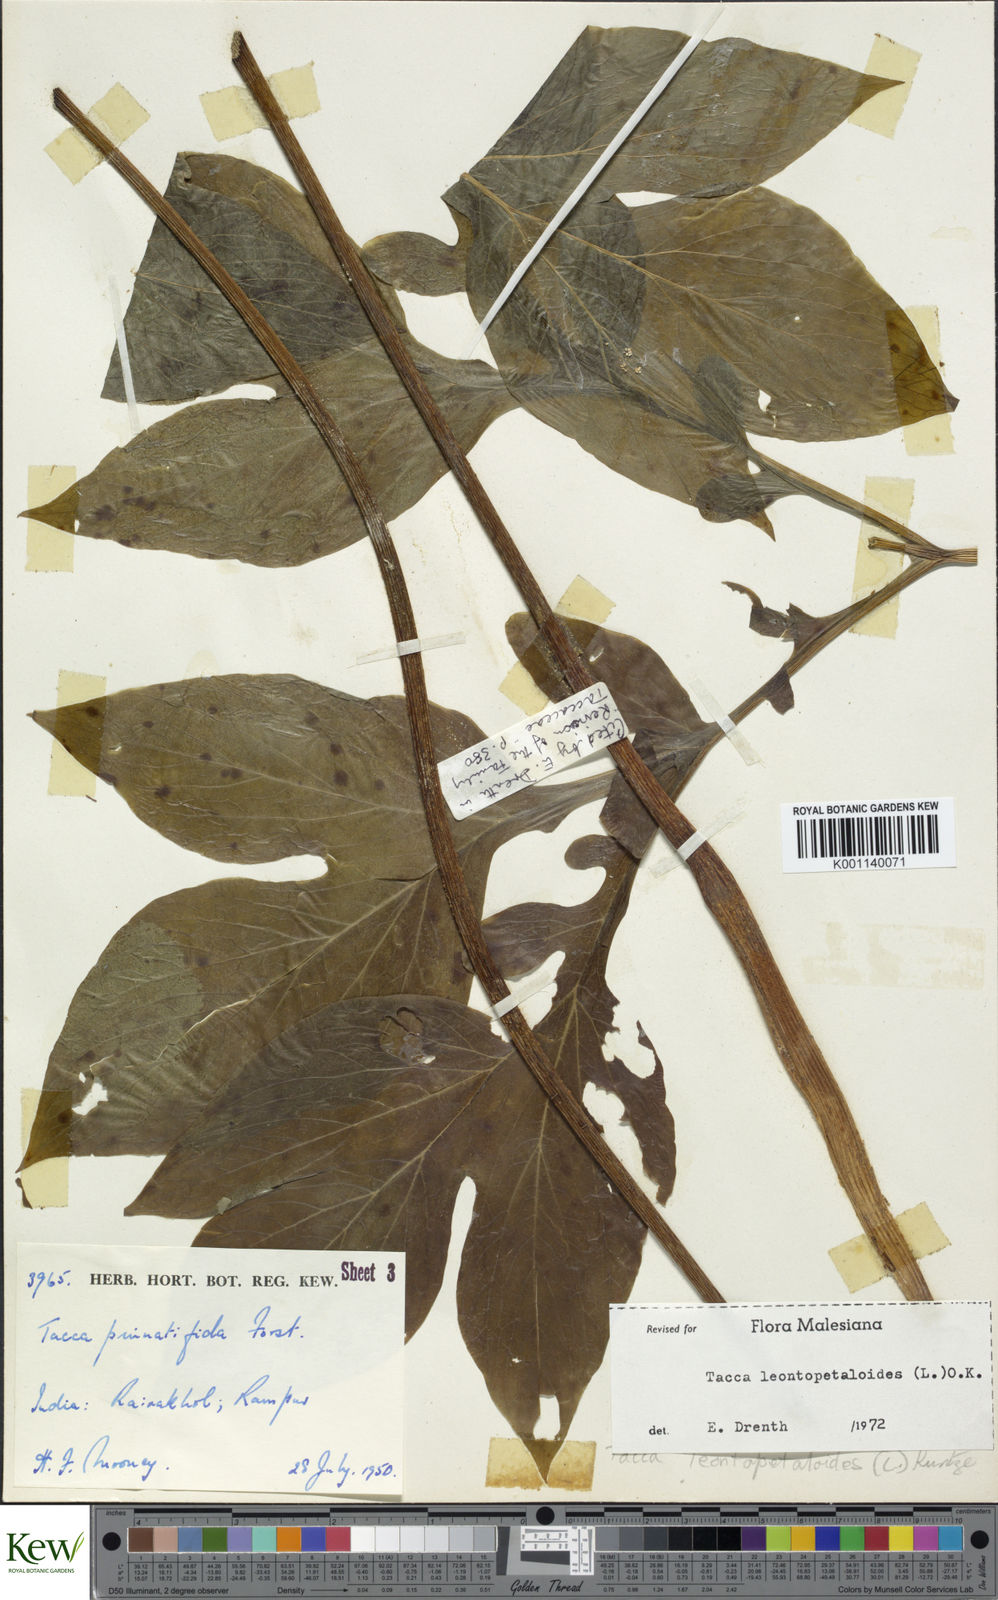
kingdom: Plantae
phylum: Tracheophyta
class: Liliopsida
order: Dioscoreales
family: Dioscoreaceae
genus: Tacca
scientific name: Tacca leontopetaloides
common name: Arrowroot
